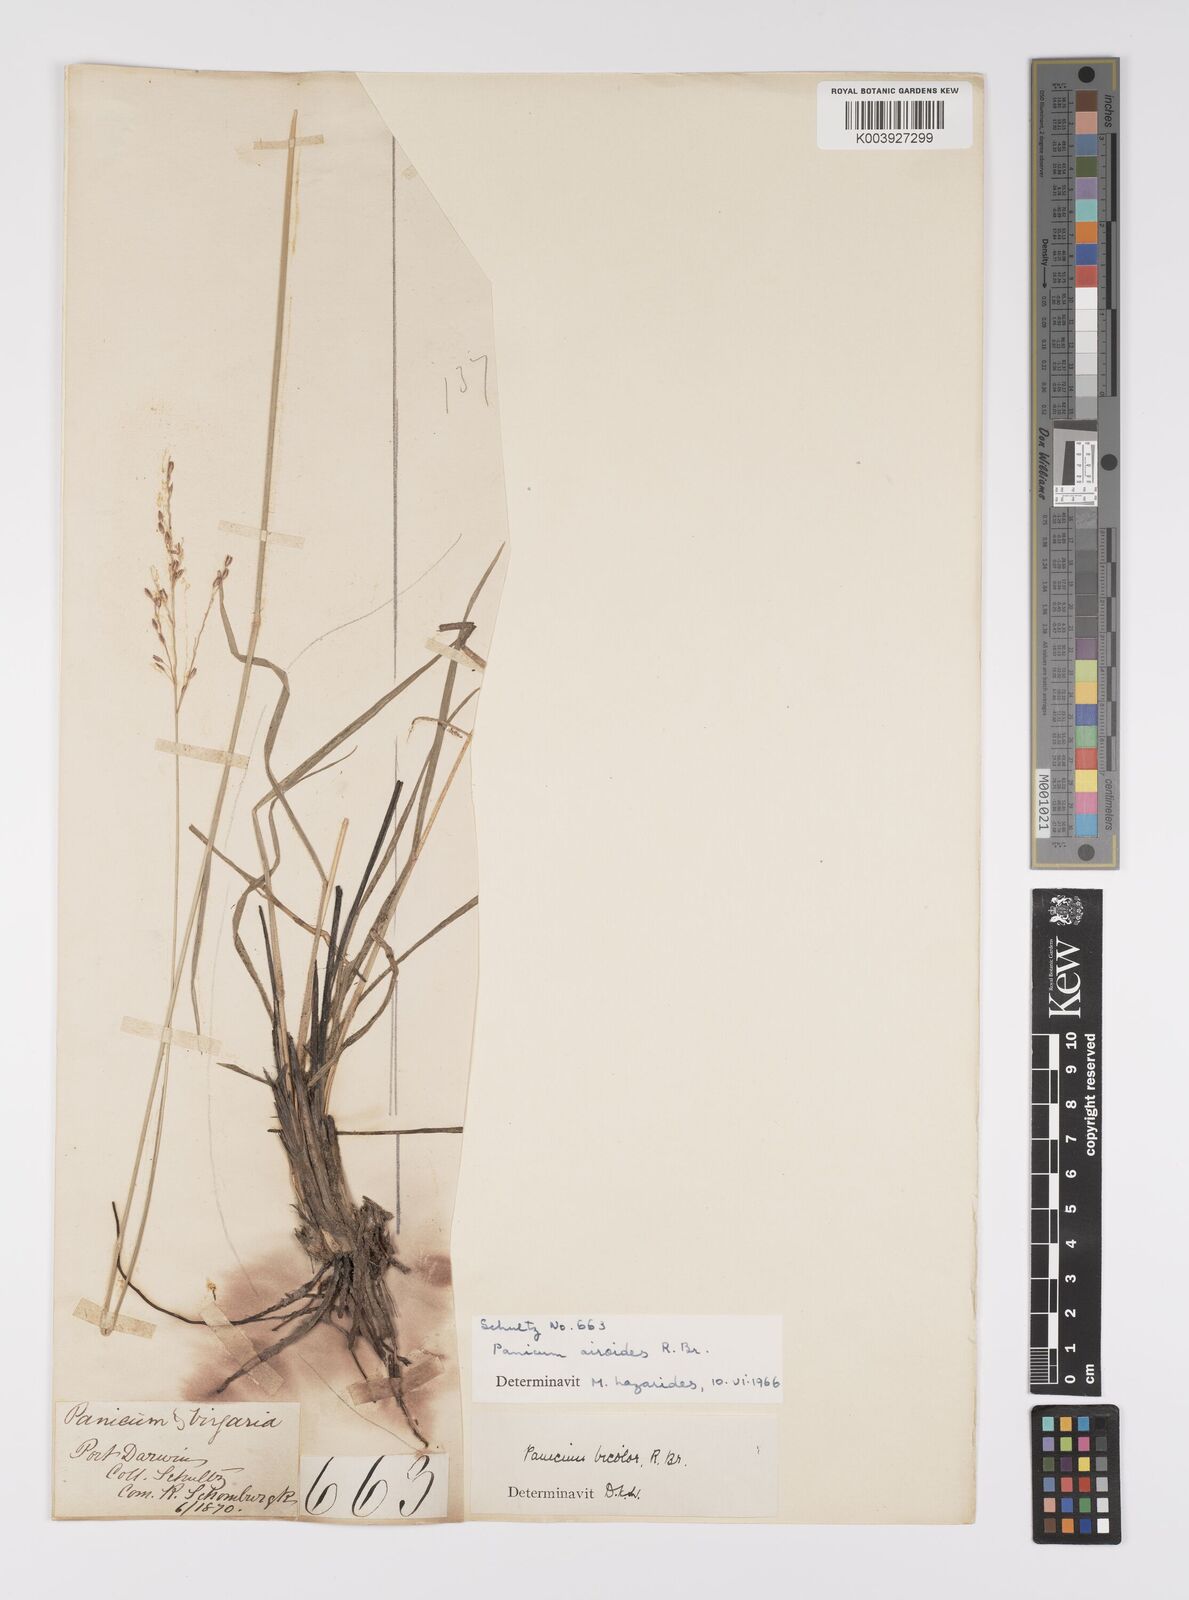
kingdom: Plantae
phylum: Tracheophyta
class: Liliopsida
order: Poales
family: Poaceae
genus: Whiteochloa
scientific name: Whiteochloa airoides
